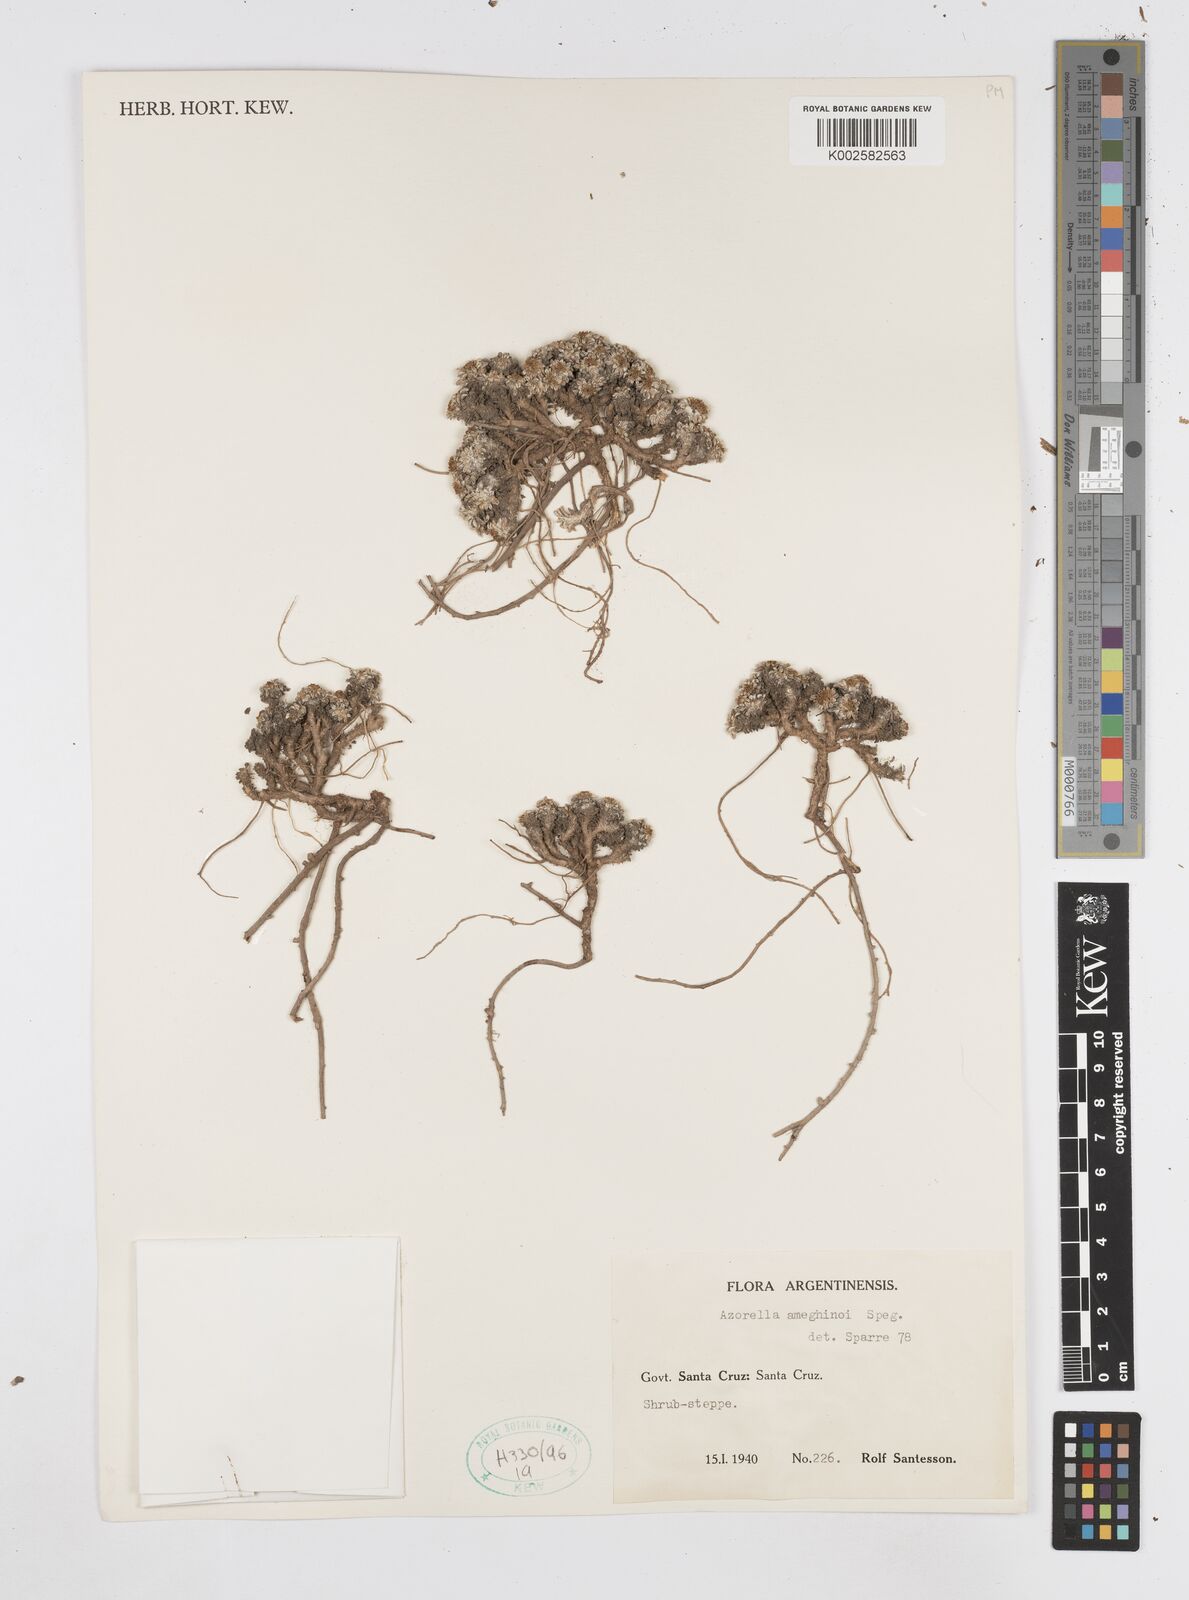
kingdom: Plantae
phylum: Tracheophyta
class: Magnoliopsida
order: Apiales
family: Apiaceae
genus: Azorella
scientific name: Azorella ameghinoi
